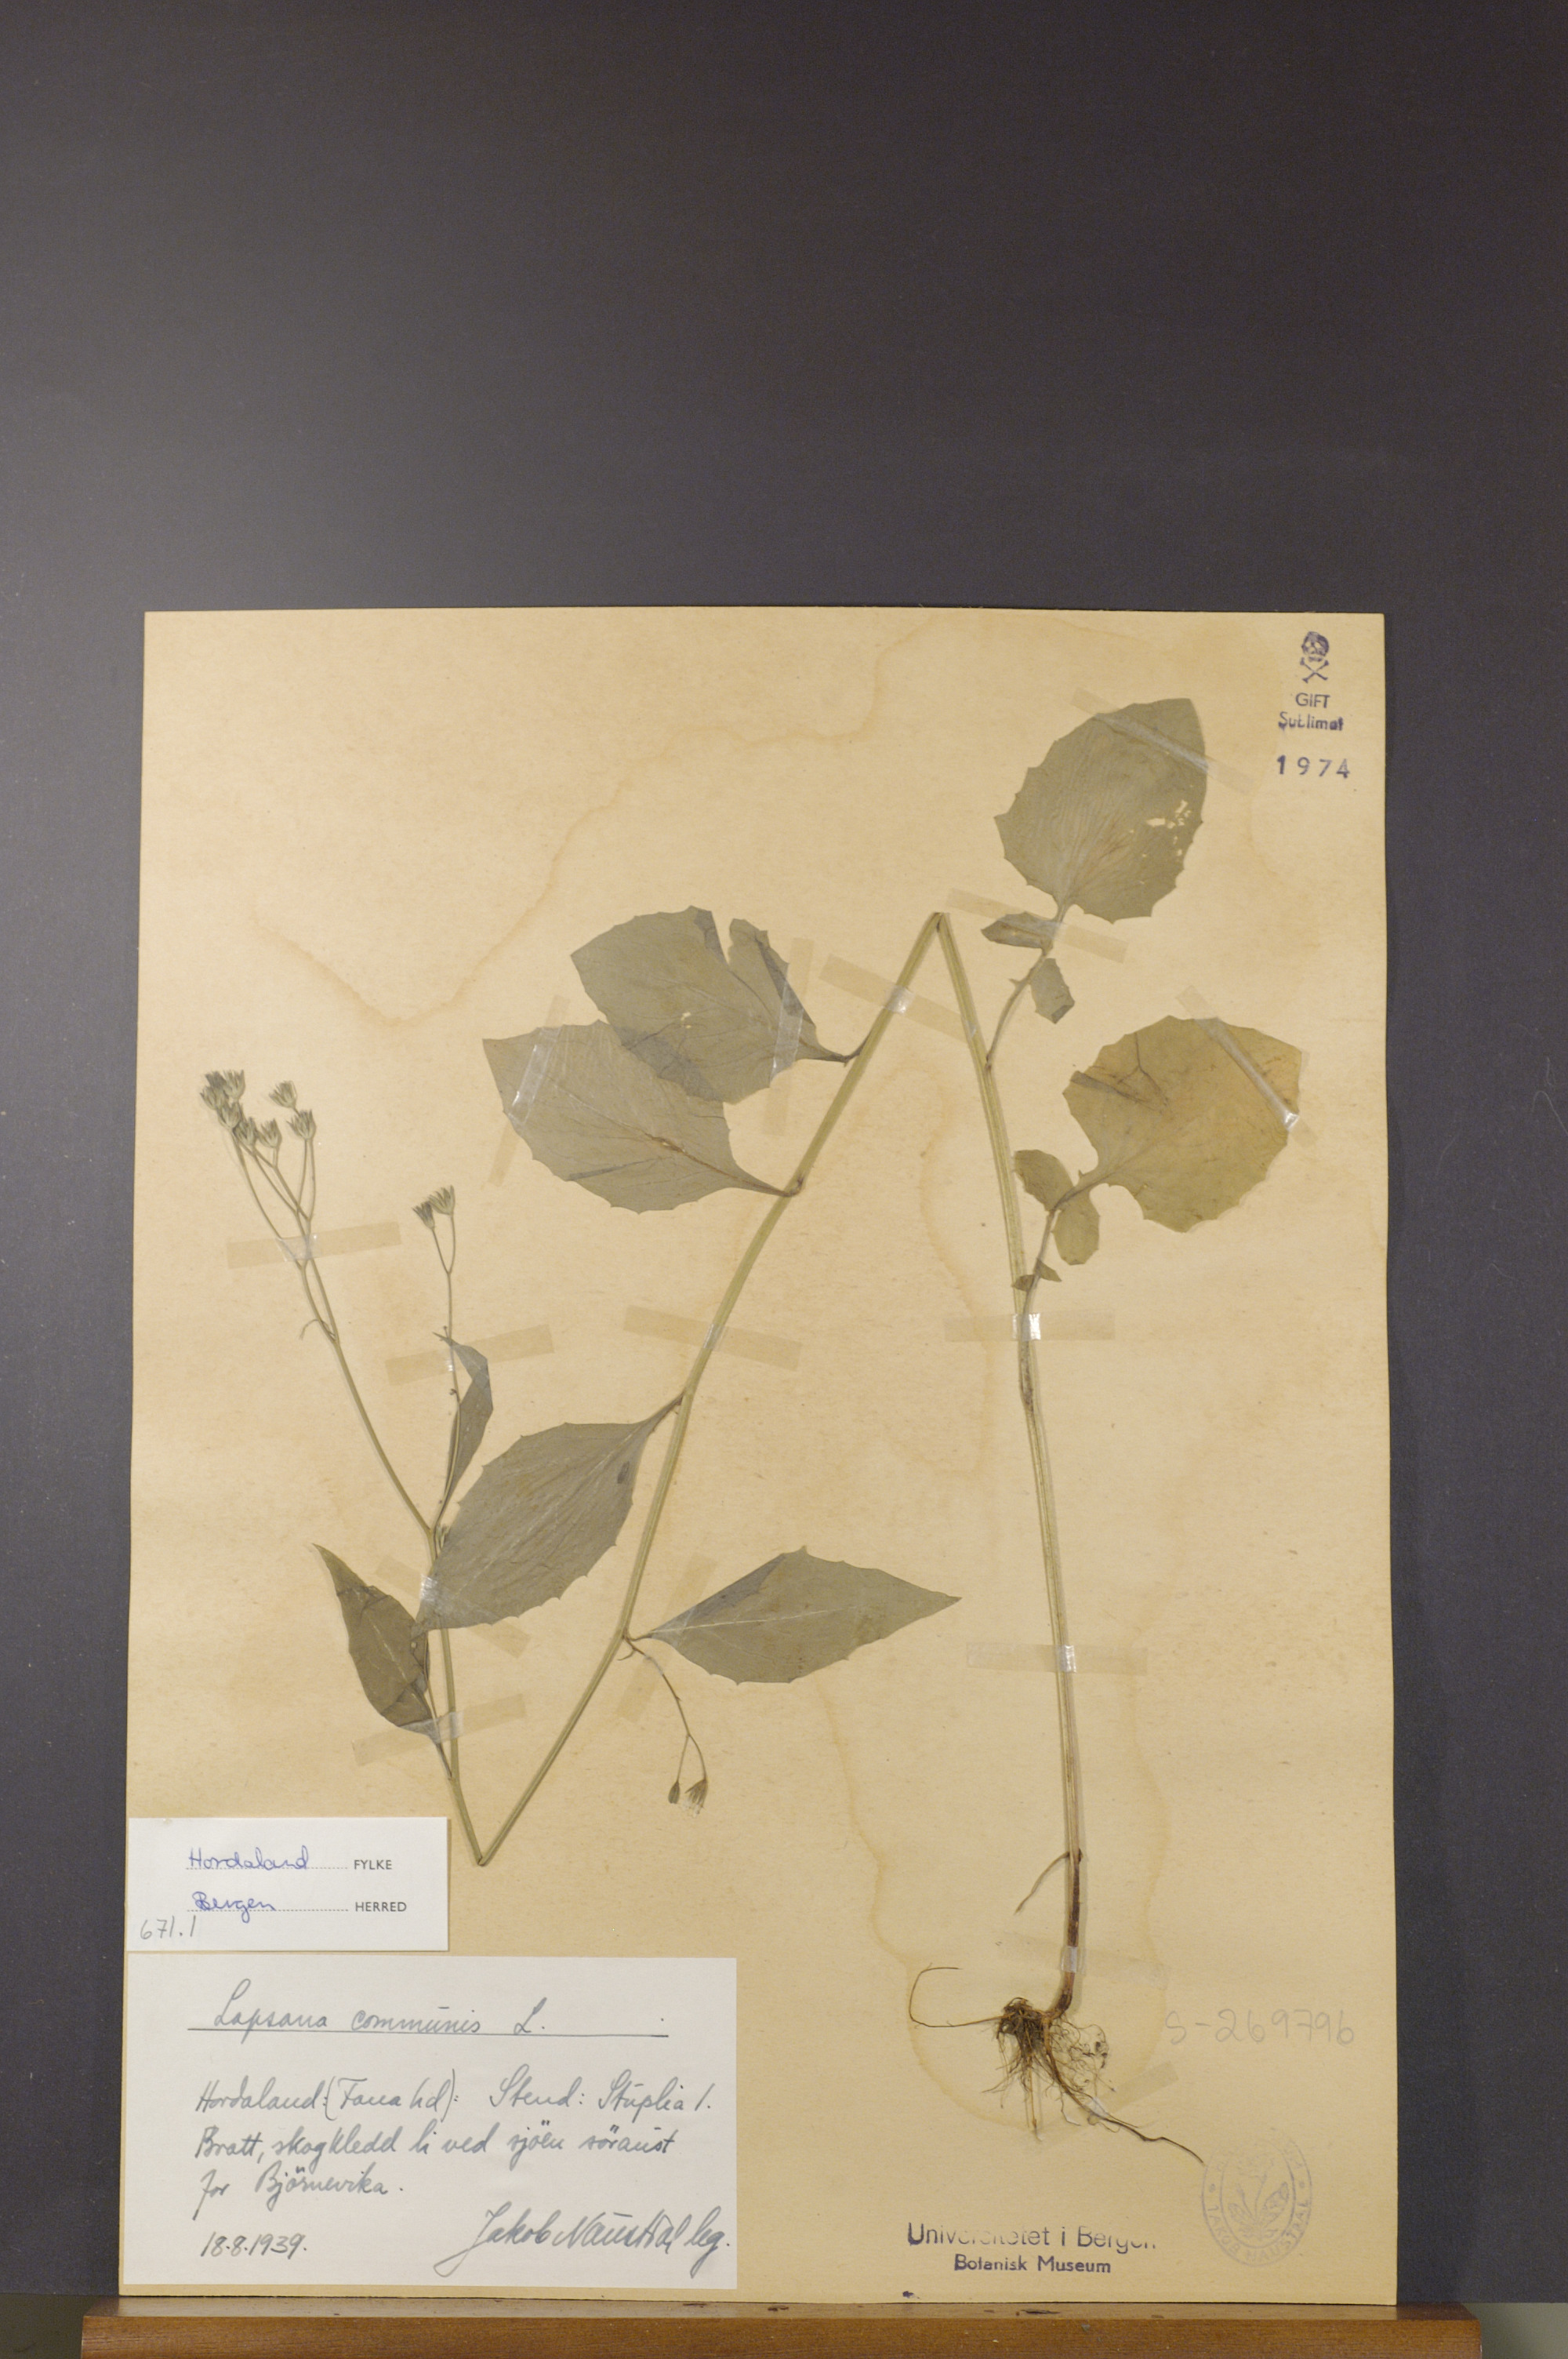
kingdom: Plantae
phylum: Tracheophyta
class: Magnoliopsida
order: Asterales
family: Asteraceae
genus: Lapsana
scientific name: Lapsana communis
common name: Nipplewort
